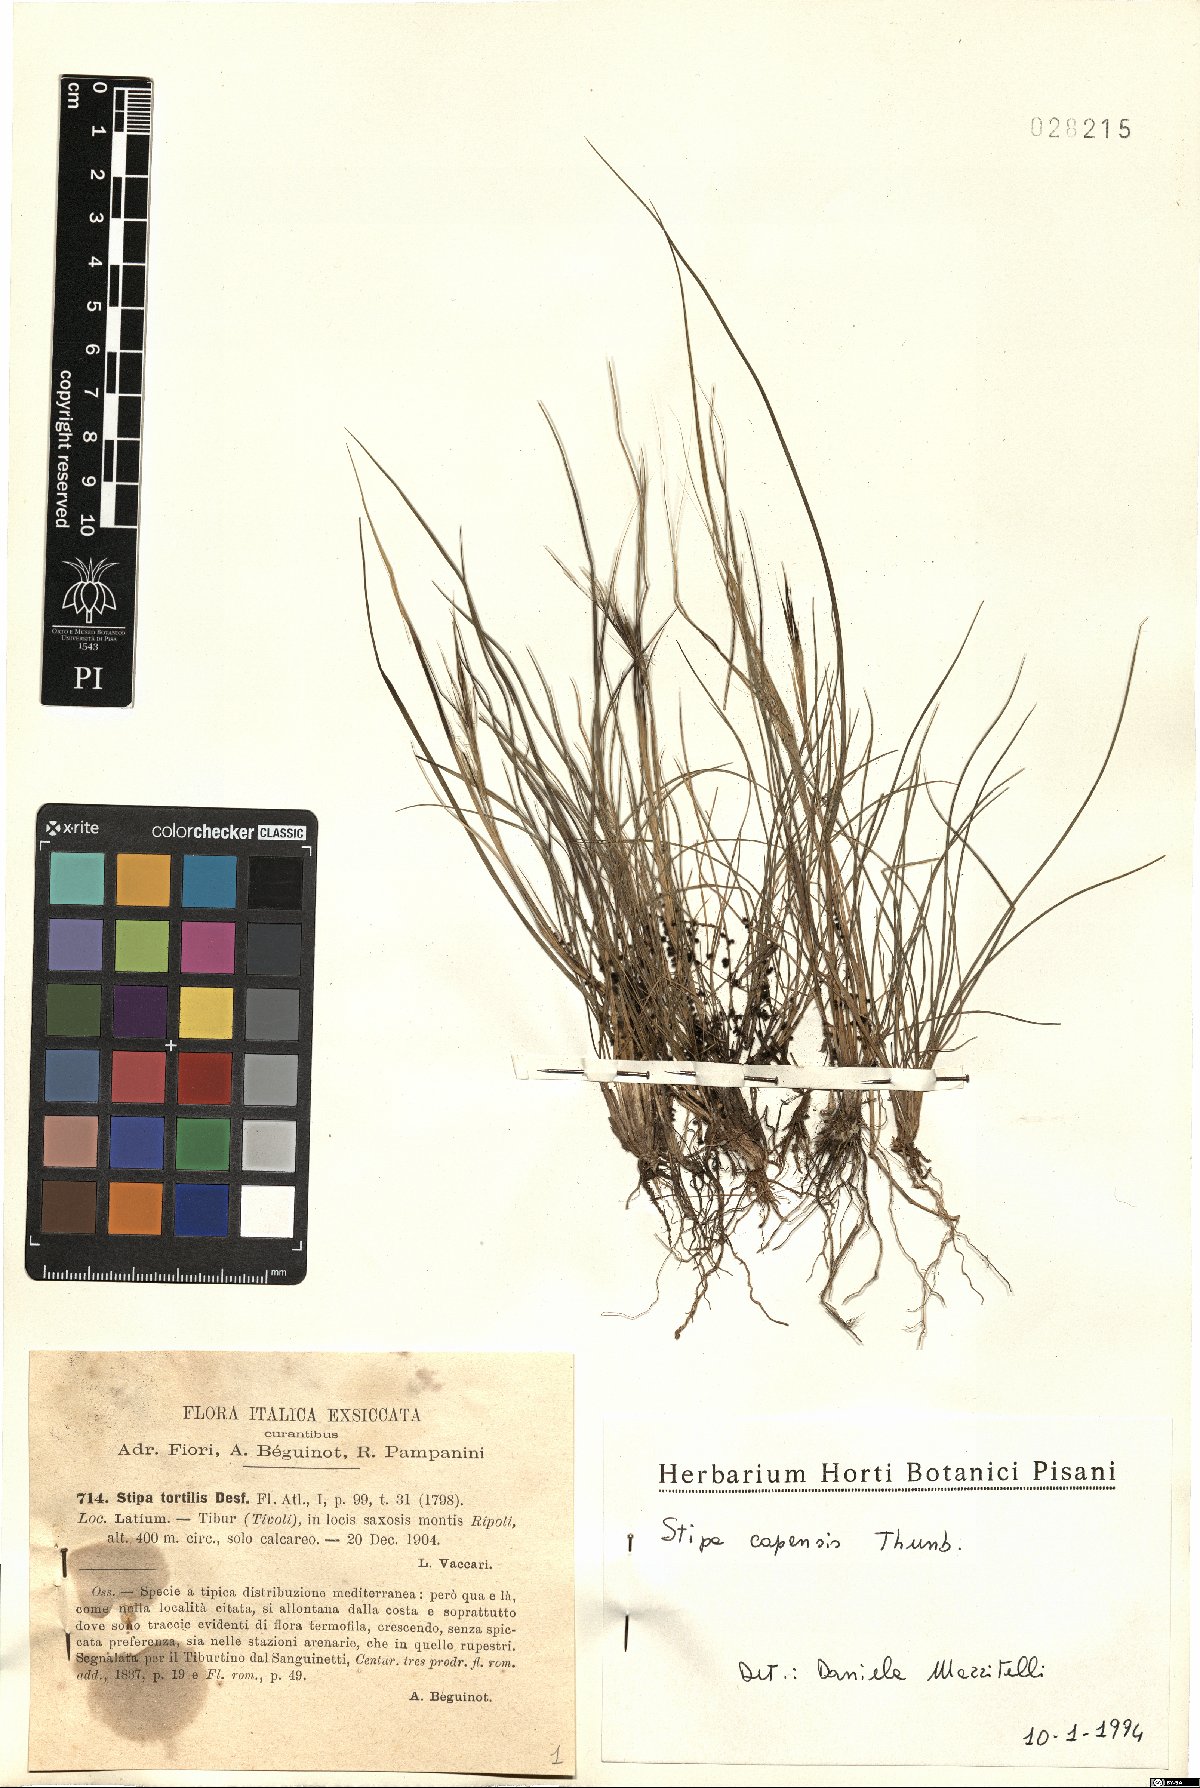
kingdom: Plantae
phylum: Tracheophyta
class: Liliopsida
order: Poales
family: Poaceae
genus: Stipa
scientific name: Stipa capillata
